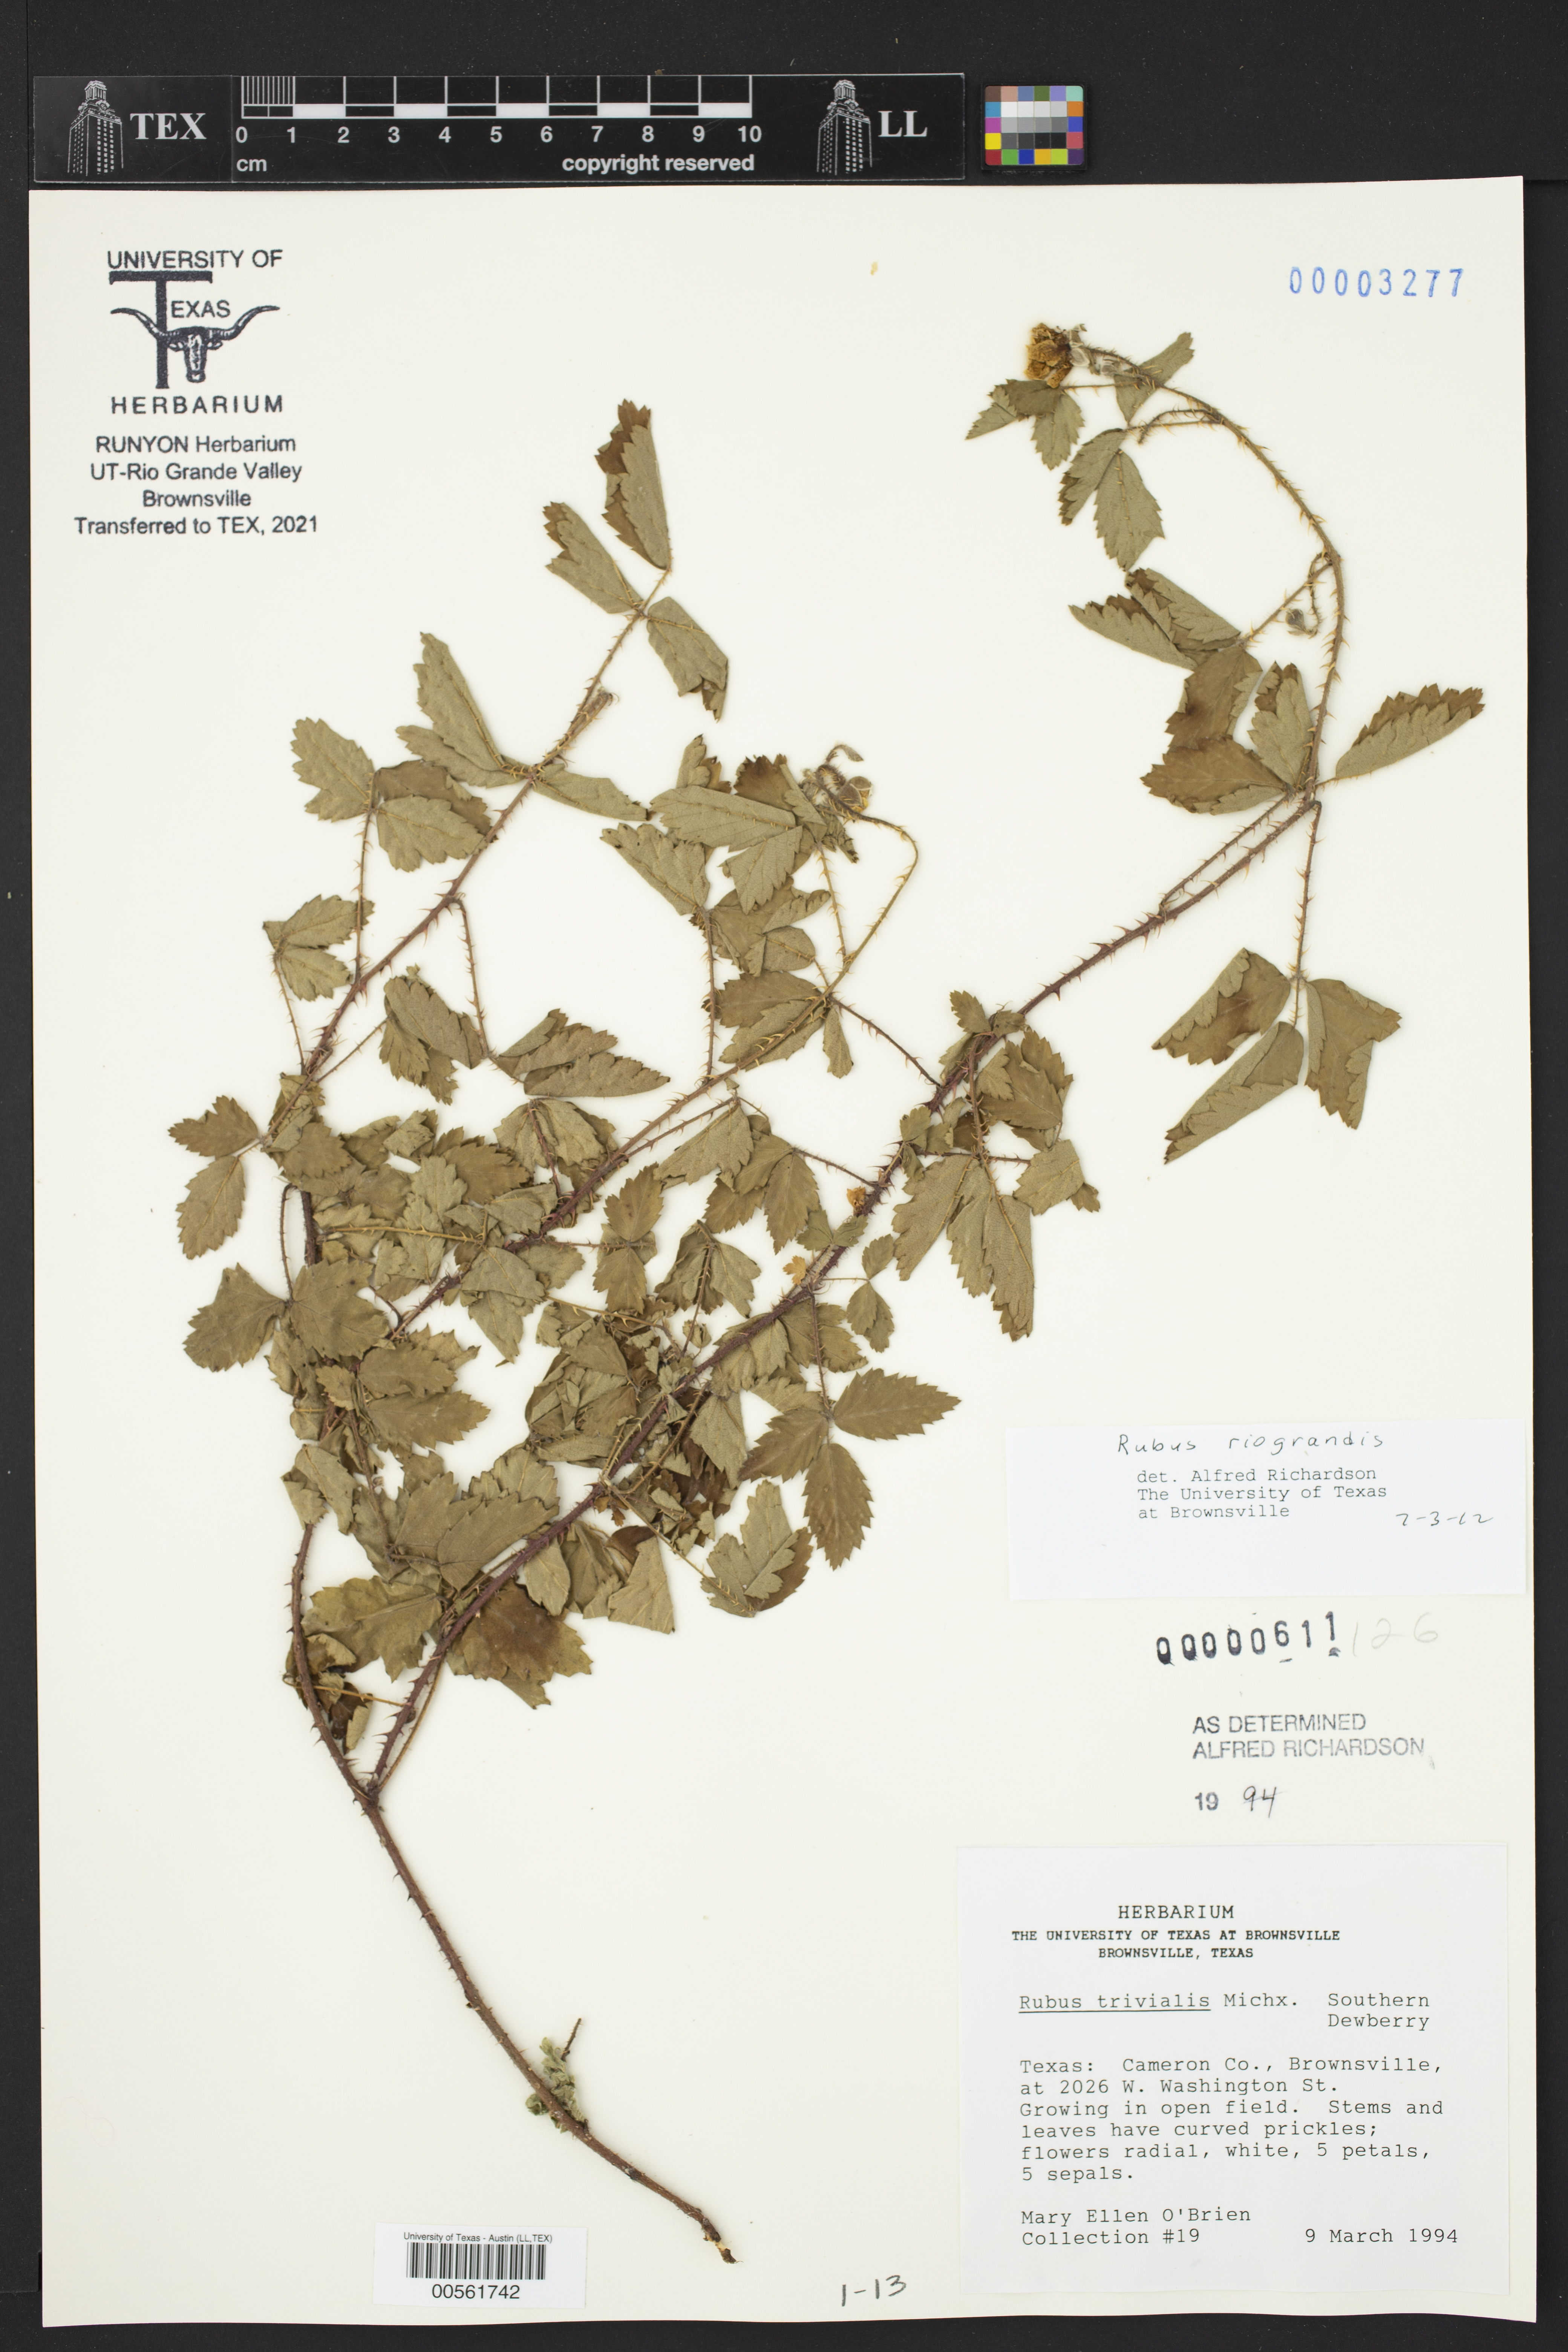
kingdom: Plantae
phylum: Tracheophyta
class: Magnoliopsida
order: Rosales
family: Rosaceae
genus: Rubus
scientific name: Rubus riograndis
